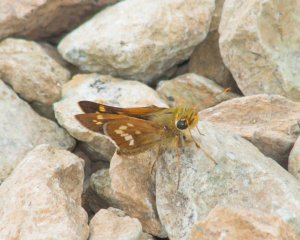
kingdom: Animalia
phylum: Arthropoda
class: Insecta
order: Lepidoptera
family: Hesperiidae
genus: Hesperia
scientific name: Hesperia leonardus
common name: Leonard's Skipper
